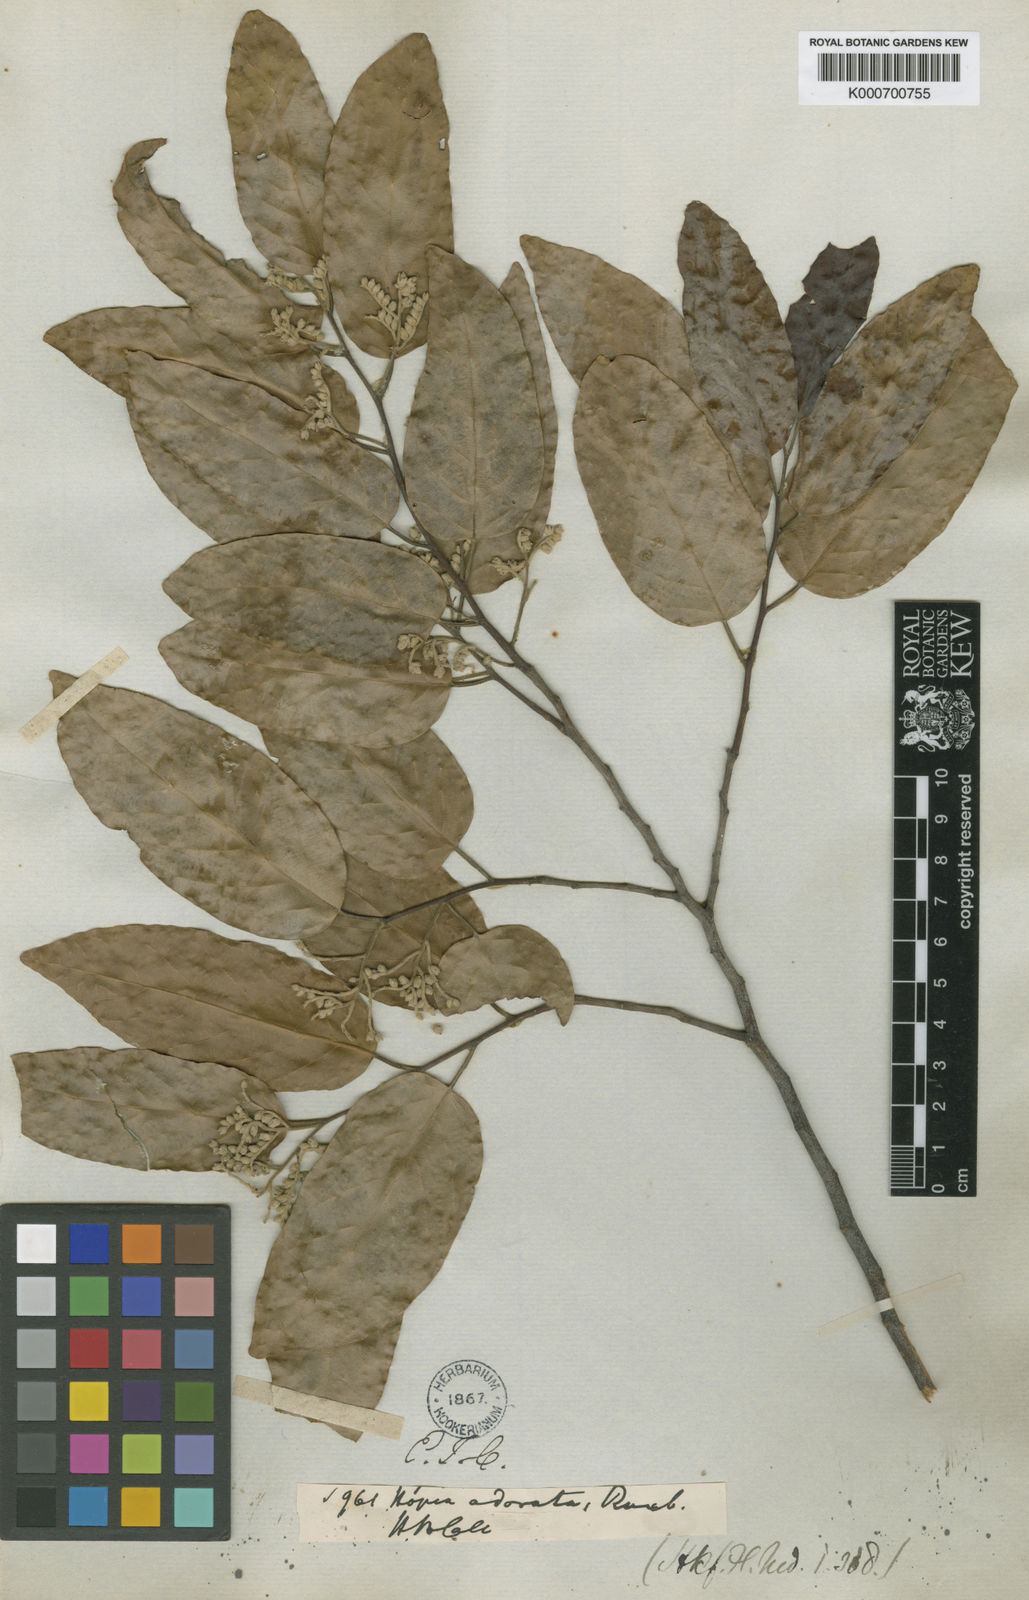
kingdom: Plantae
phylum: Tracheophyta
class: Magnoliopsida
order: Malvales
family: Dipterocarpaceae
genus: Hopea
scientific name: Hopea odorata
